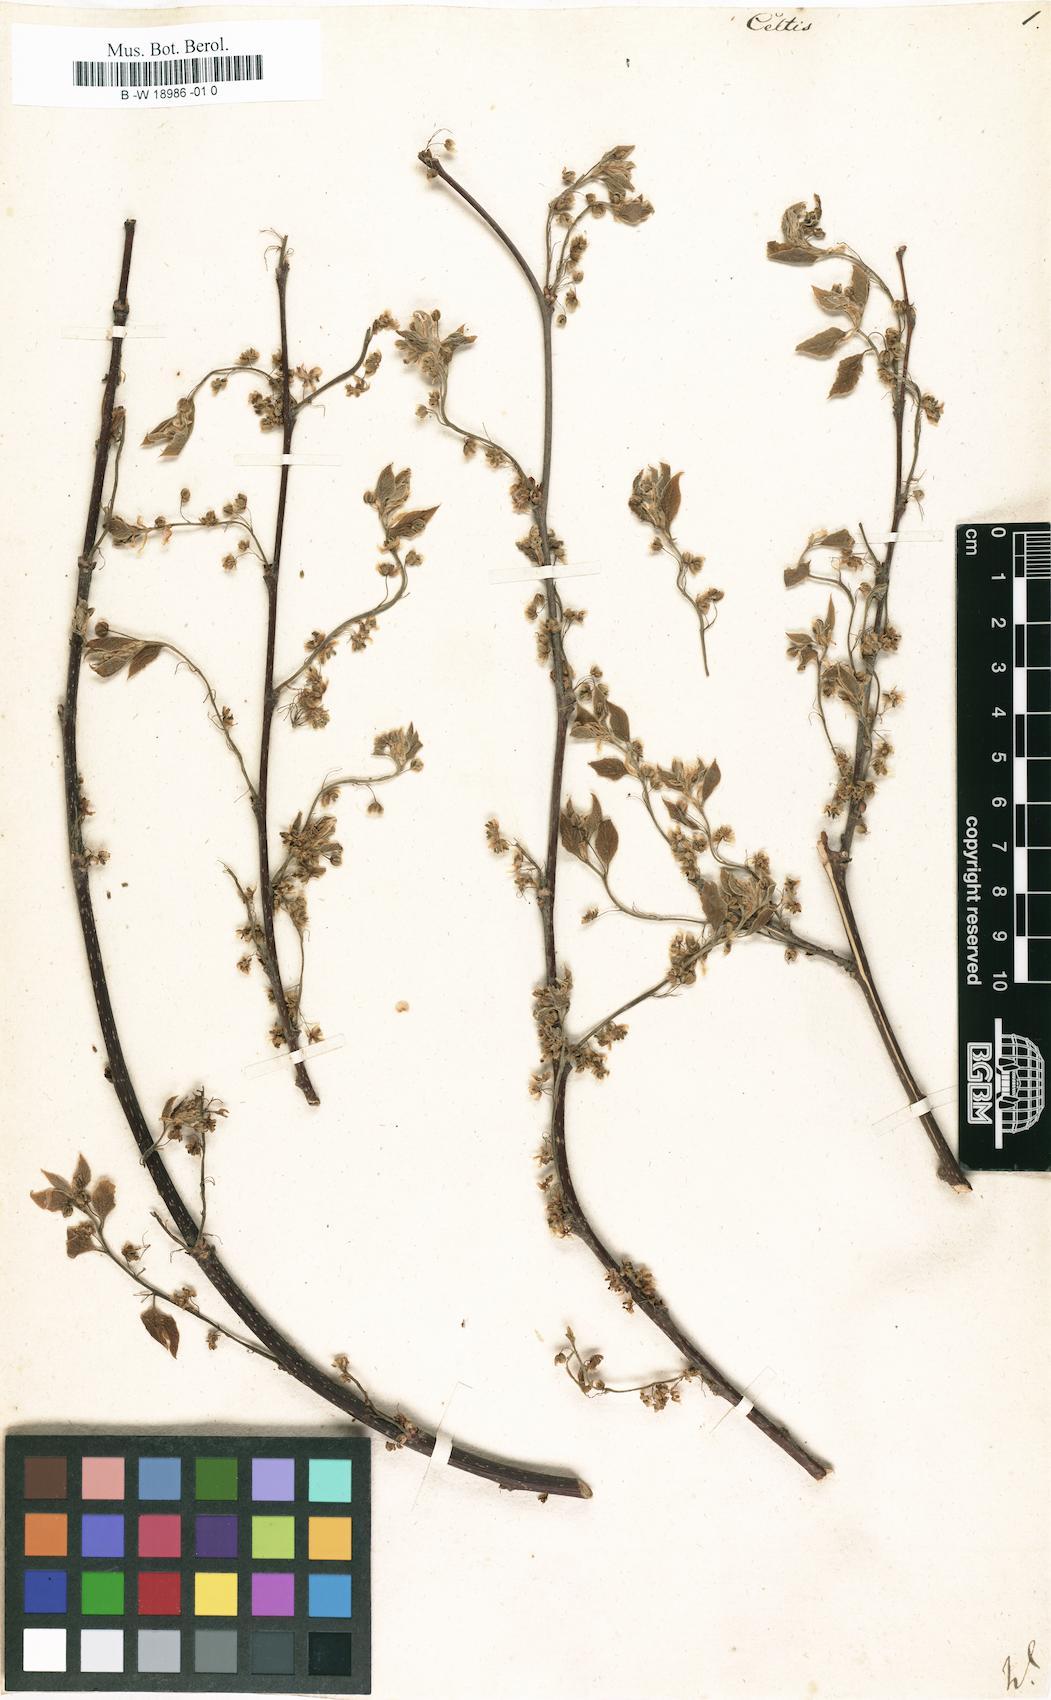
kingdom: Plantae
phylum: Tracheophyta
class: Magnoliopsida
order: Rosales
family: Cannabaceae
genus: Celtis
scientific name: Celtis
